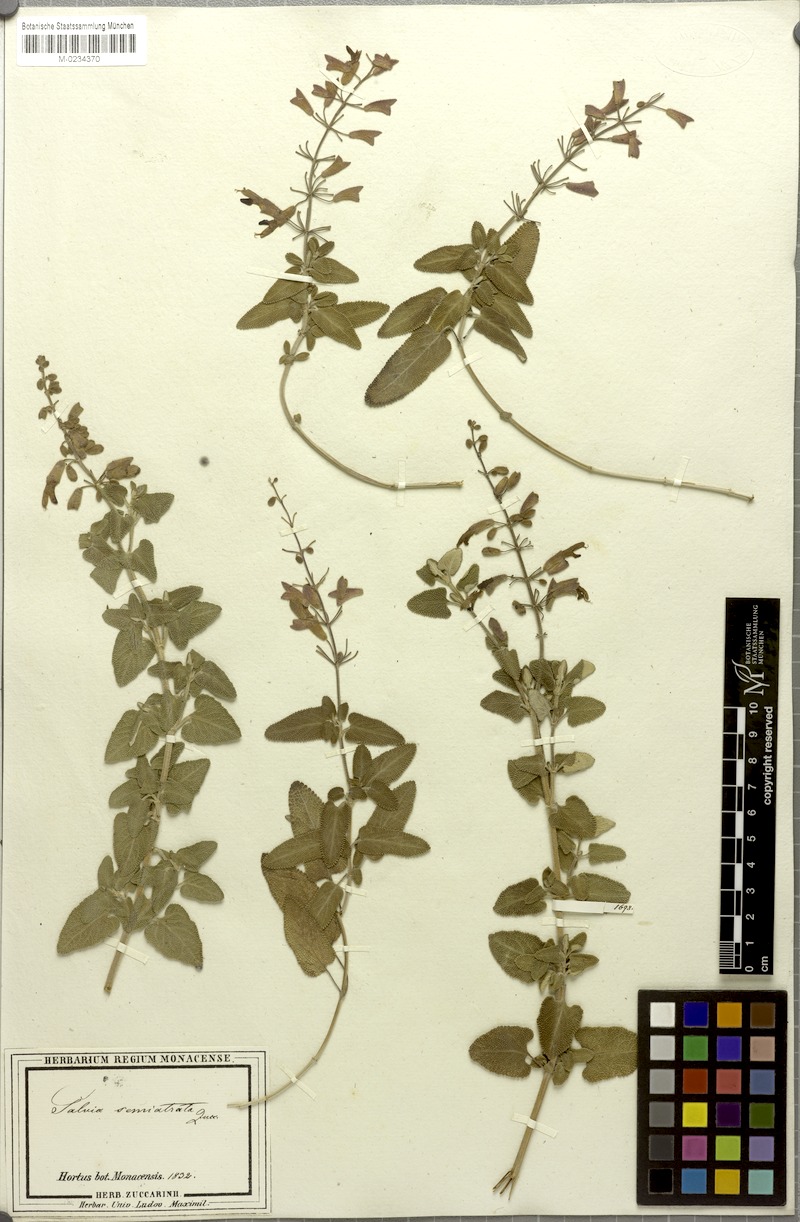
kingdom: Plantae
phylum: Tracheophyta
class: Magnoliopsida
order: Lamiales
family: Lamiaceae
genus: Salvia
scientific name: Salvia semiatrata
